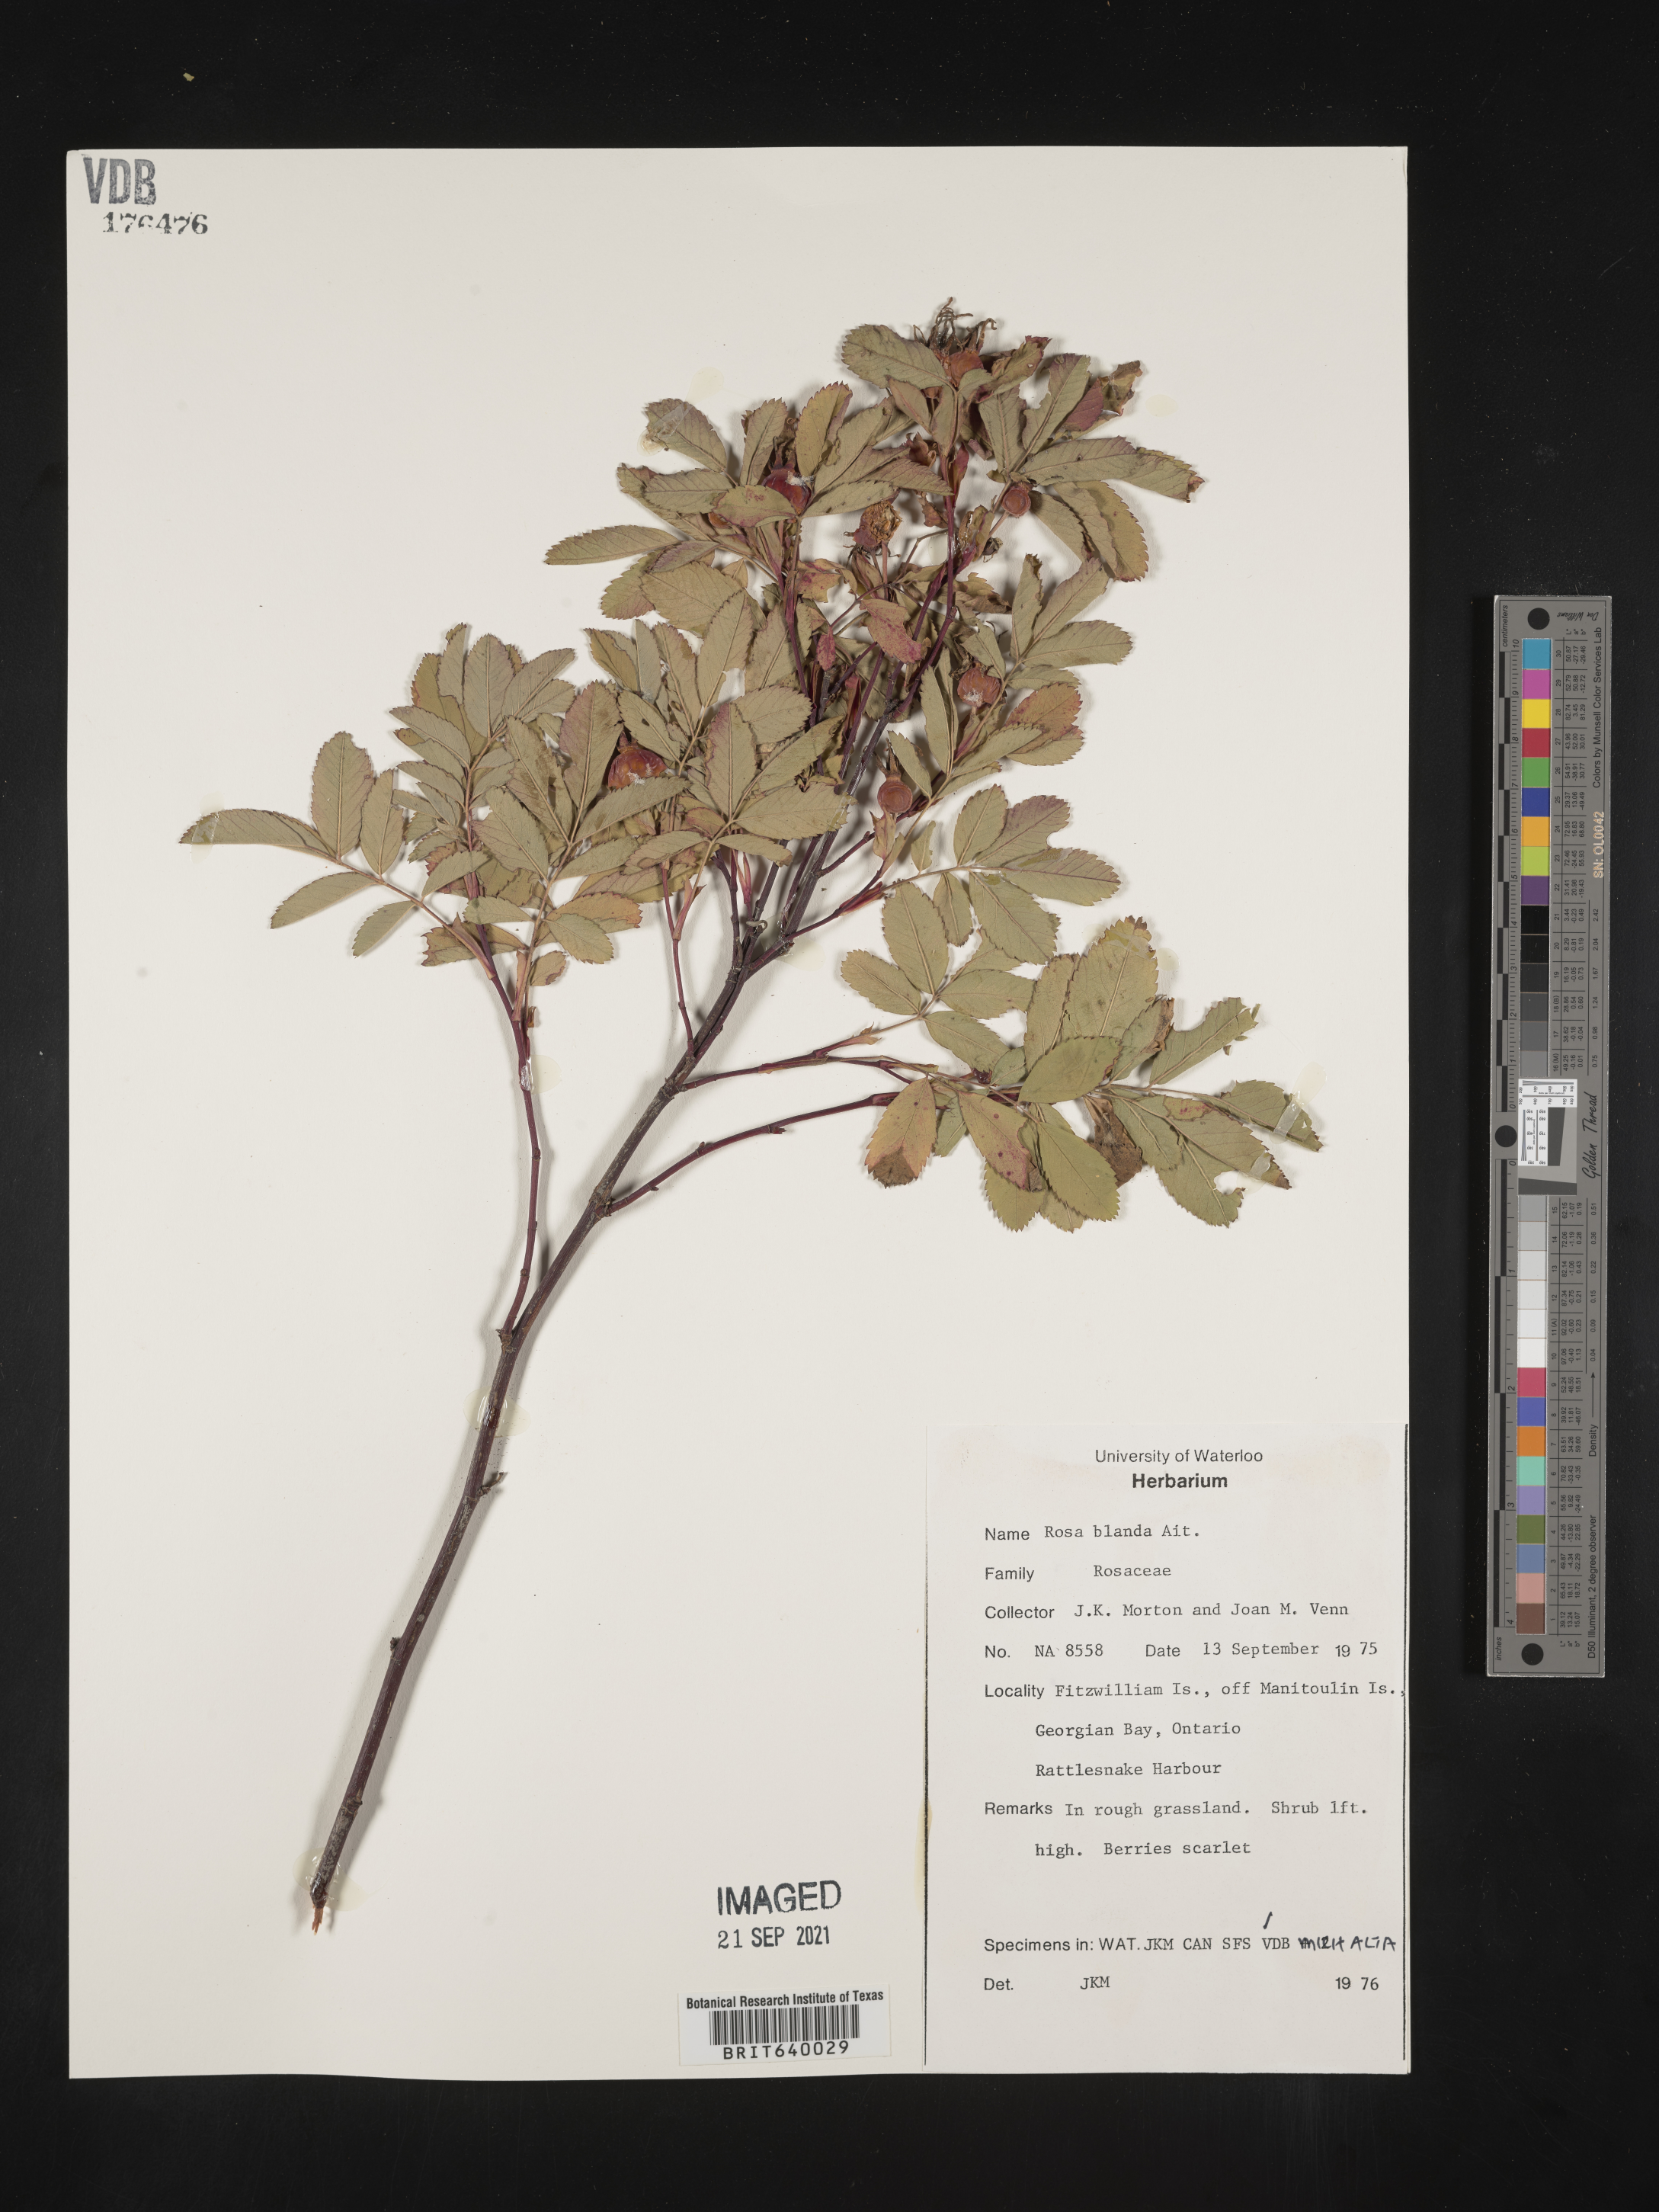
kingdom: Plantae
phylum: Tracheophyta
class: Magnoliopsida
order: Rosales
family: Rosaceae
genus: Rosa
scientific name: Rosa
